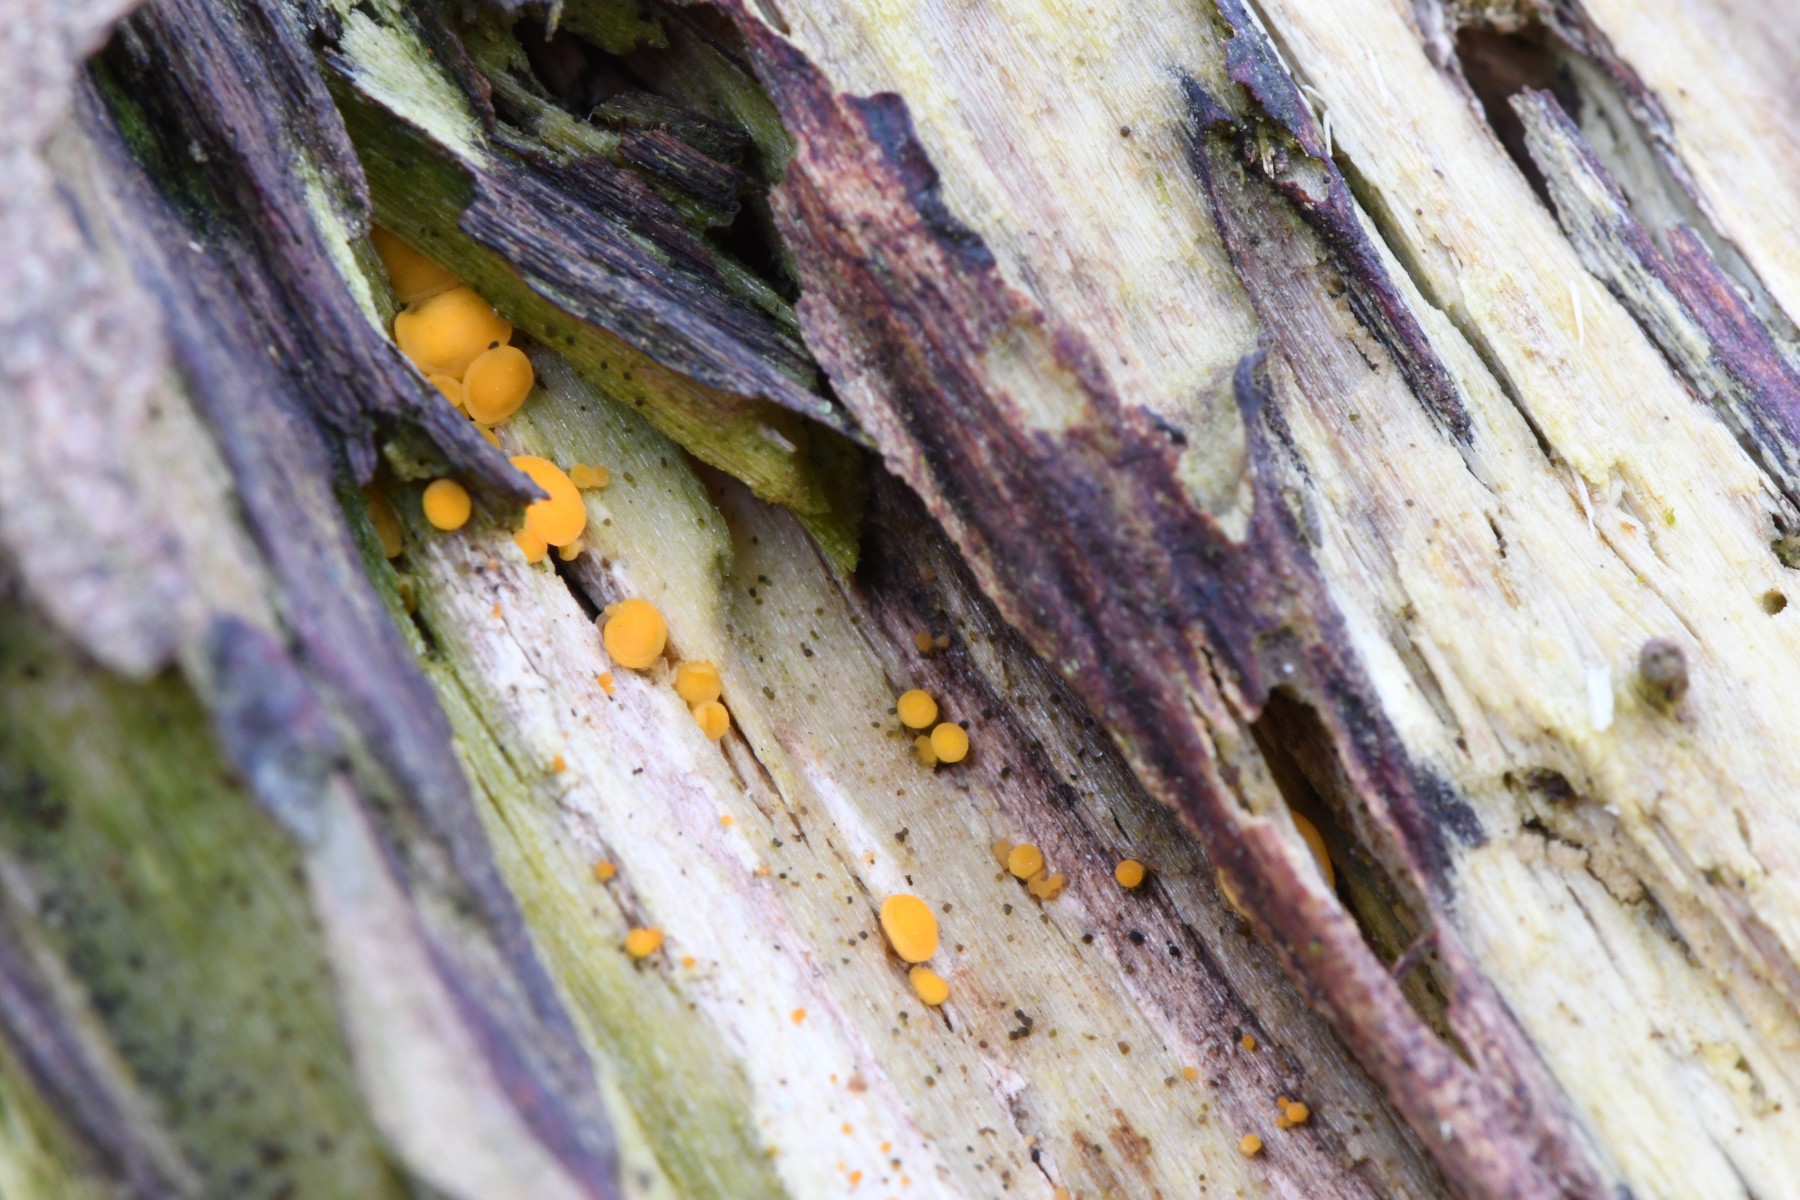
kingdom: Fungi
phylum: Ascomycota
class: Leotiomycetes
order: Helotiales
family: Helotiaceae
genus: Hymenoscyphus
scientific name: Hymenoscyphus
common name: stilkskive
